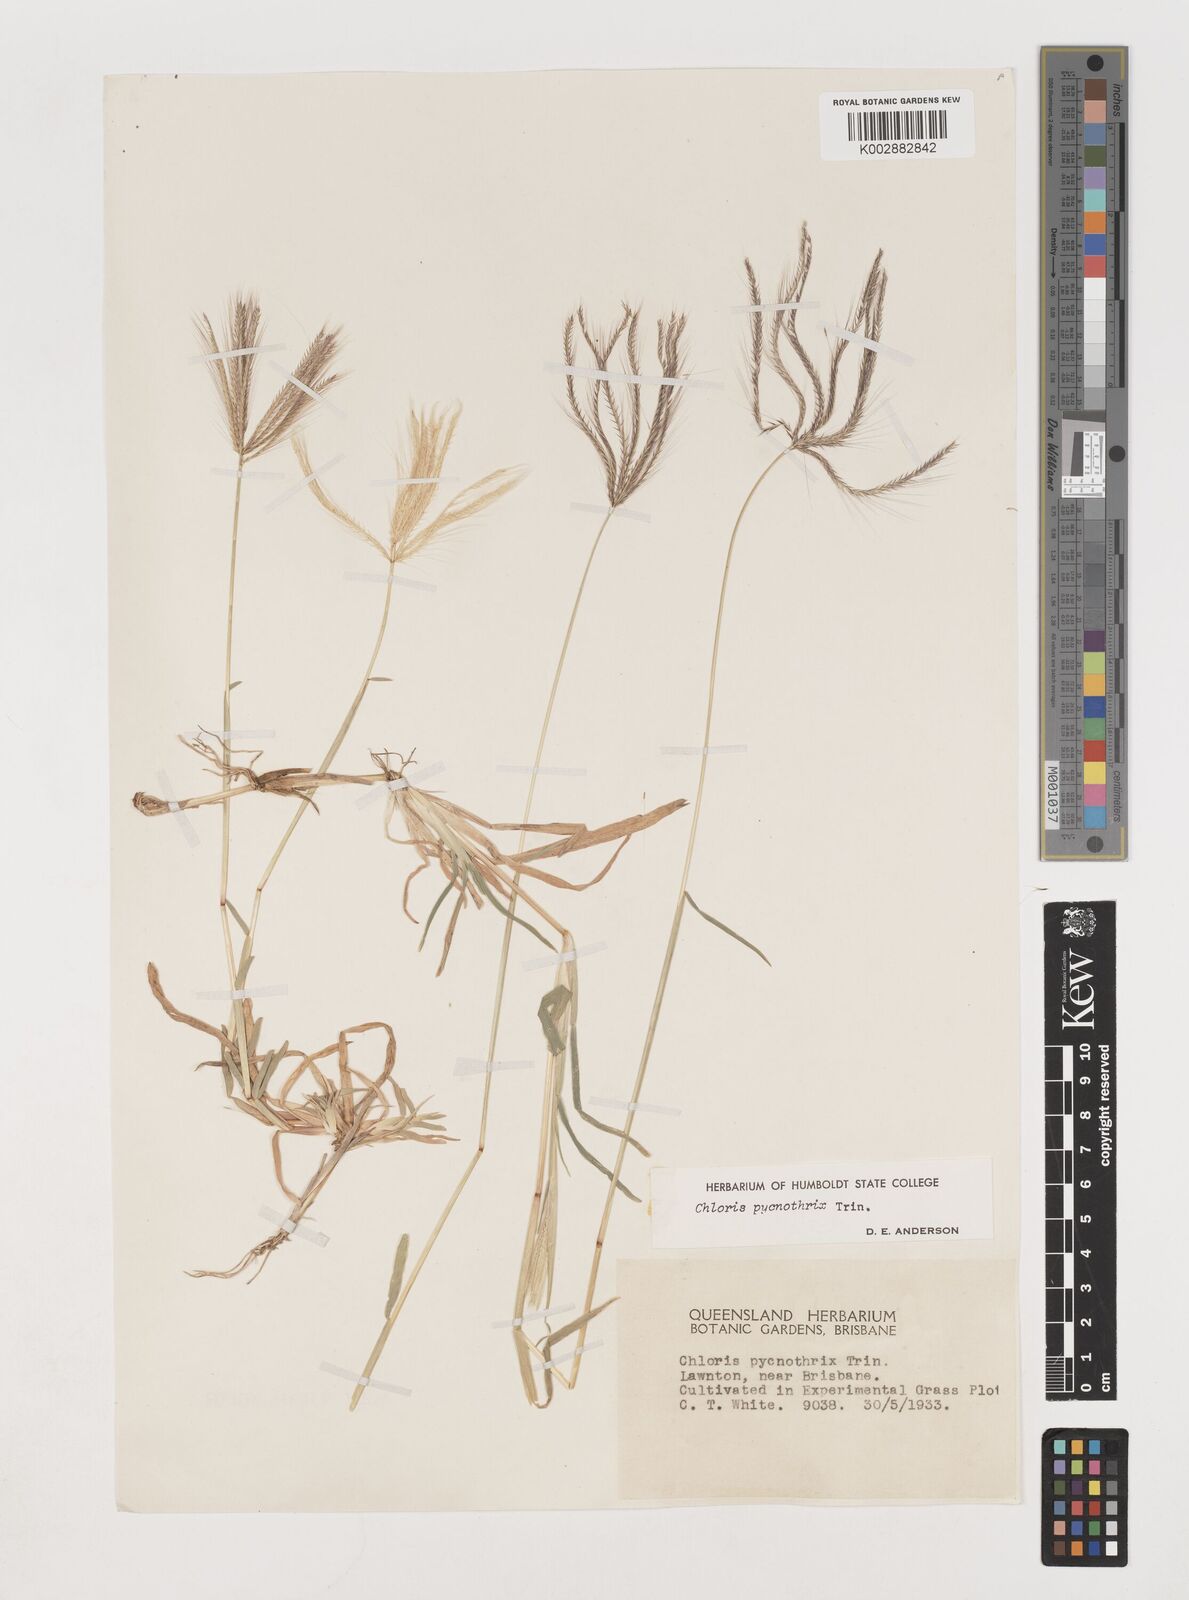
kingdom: Plantae
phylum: Tracheophyta
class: Liliopsida
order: Poales
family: Poaceae
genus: Chloris
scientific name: Chloris pycnothrix
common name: Spiderweb chloris
